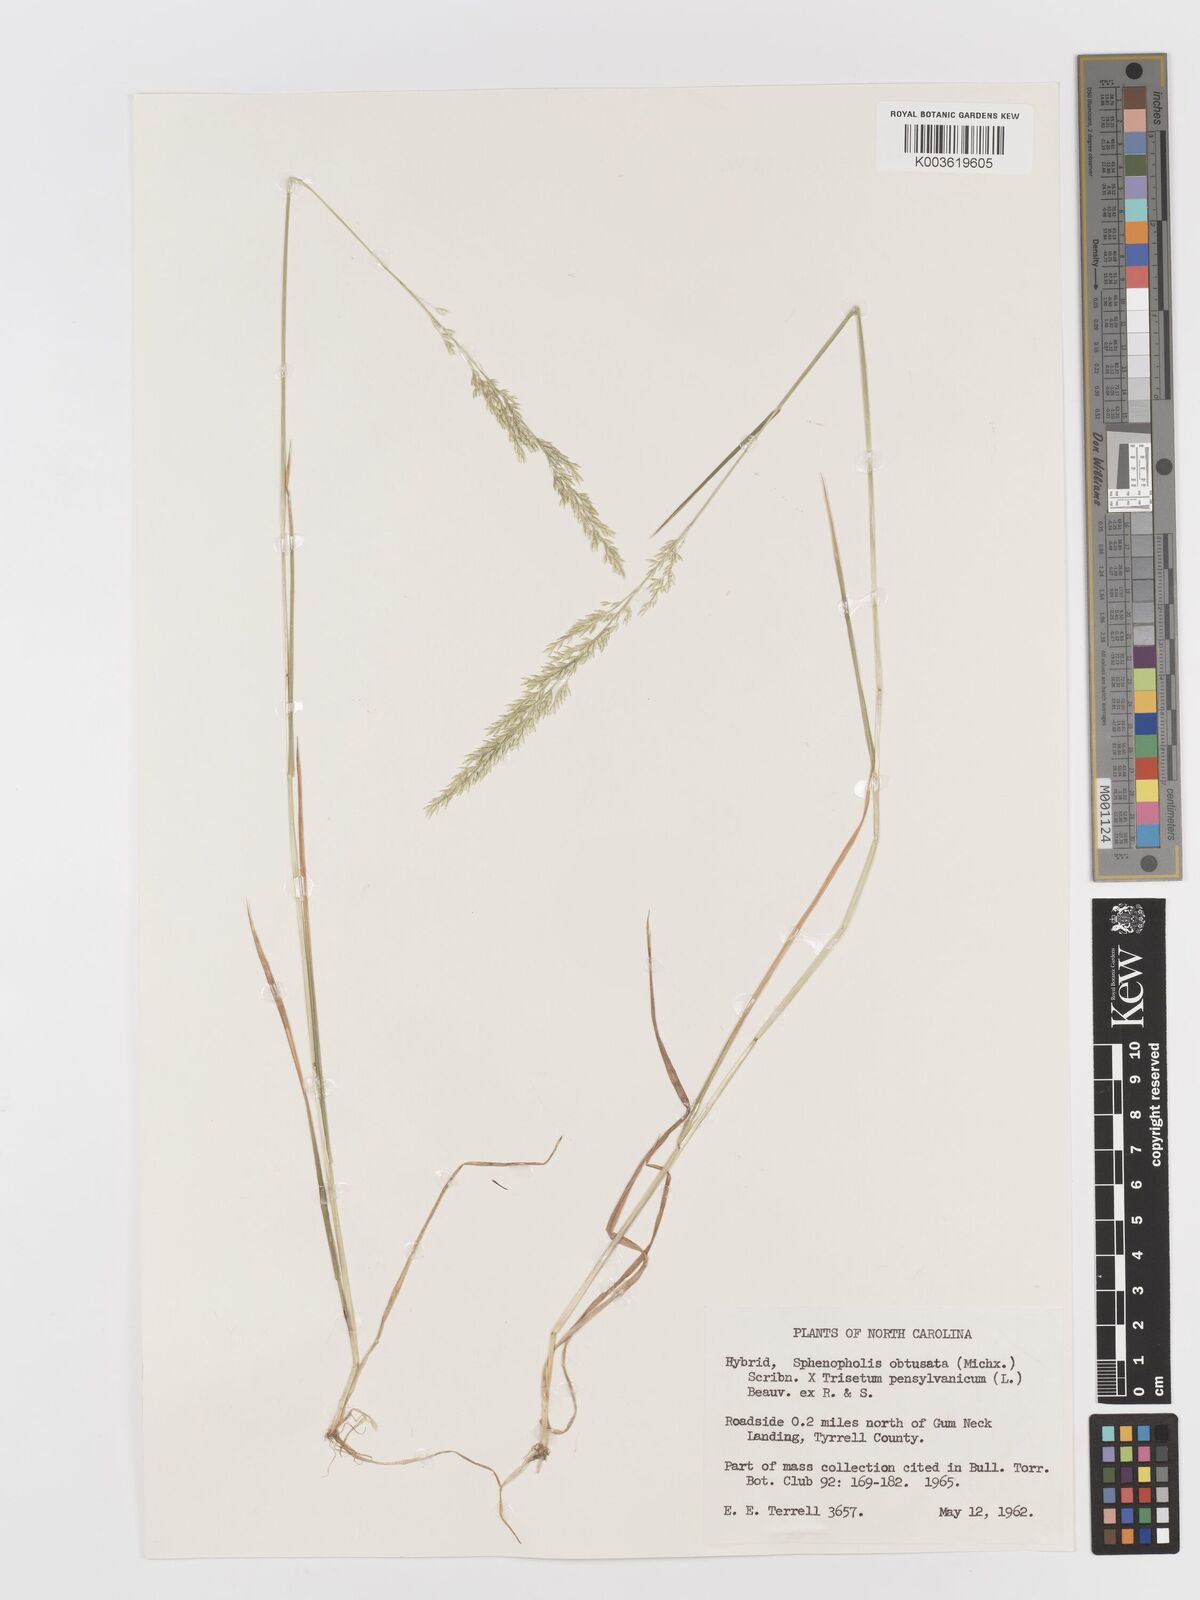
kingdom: Plantae
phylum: Tracheophyta
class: Liliopsida
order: Poales
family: Poaceae
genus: Sphenopholis
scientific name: Sphenopholis obtusata
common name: Prairie grass
